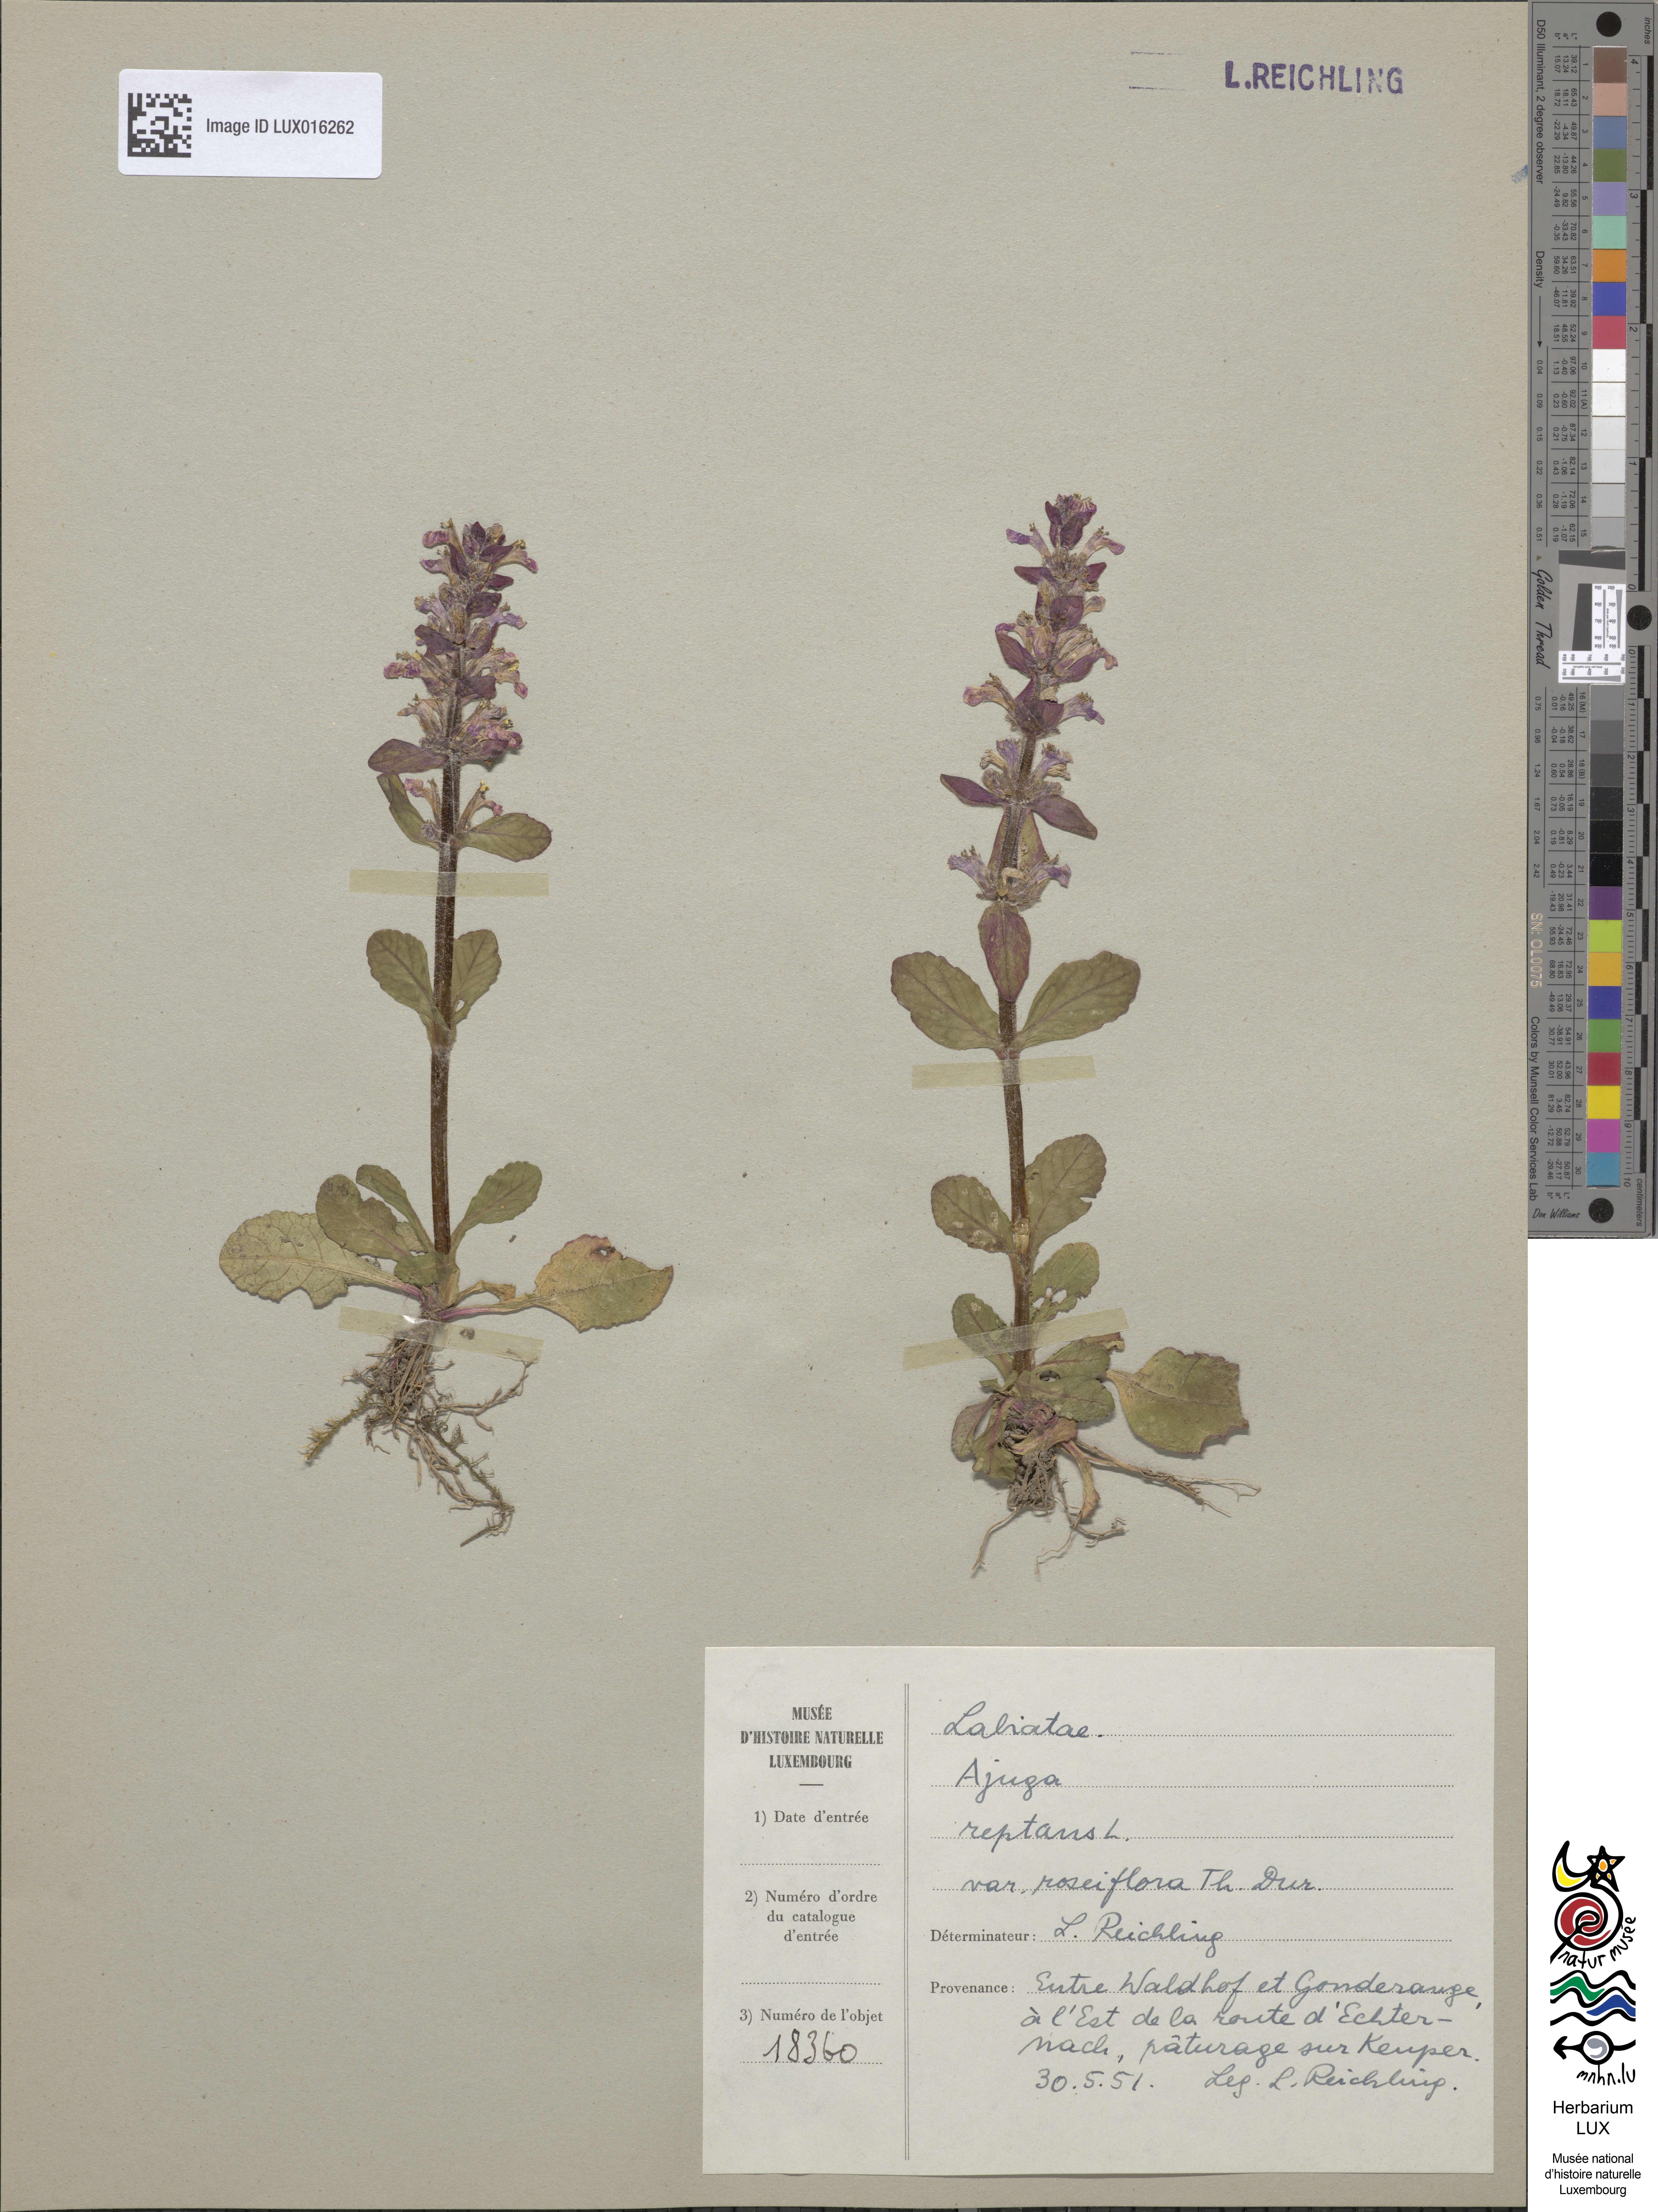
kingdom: Plantae
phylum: Tracheophyta
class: Magnoliopsida
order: Lamiales
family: Lamiaceae
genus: Ajuga
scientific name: Ajuga reptans
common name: Bugle
